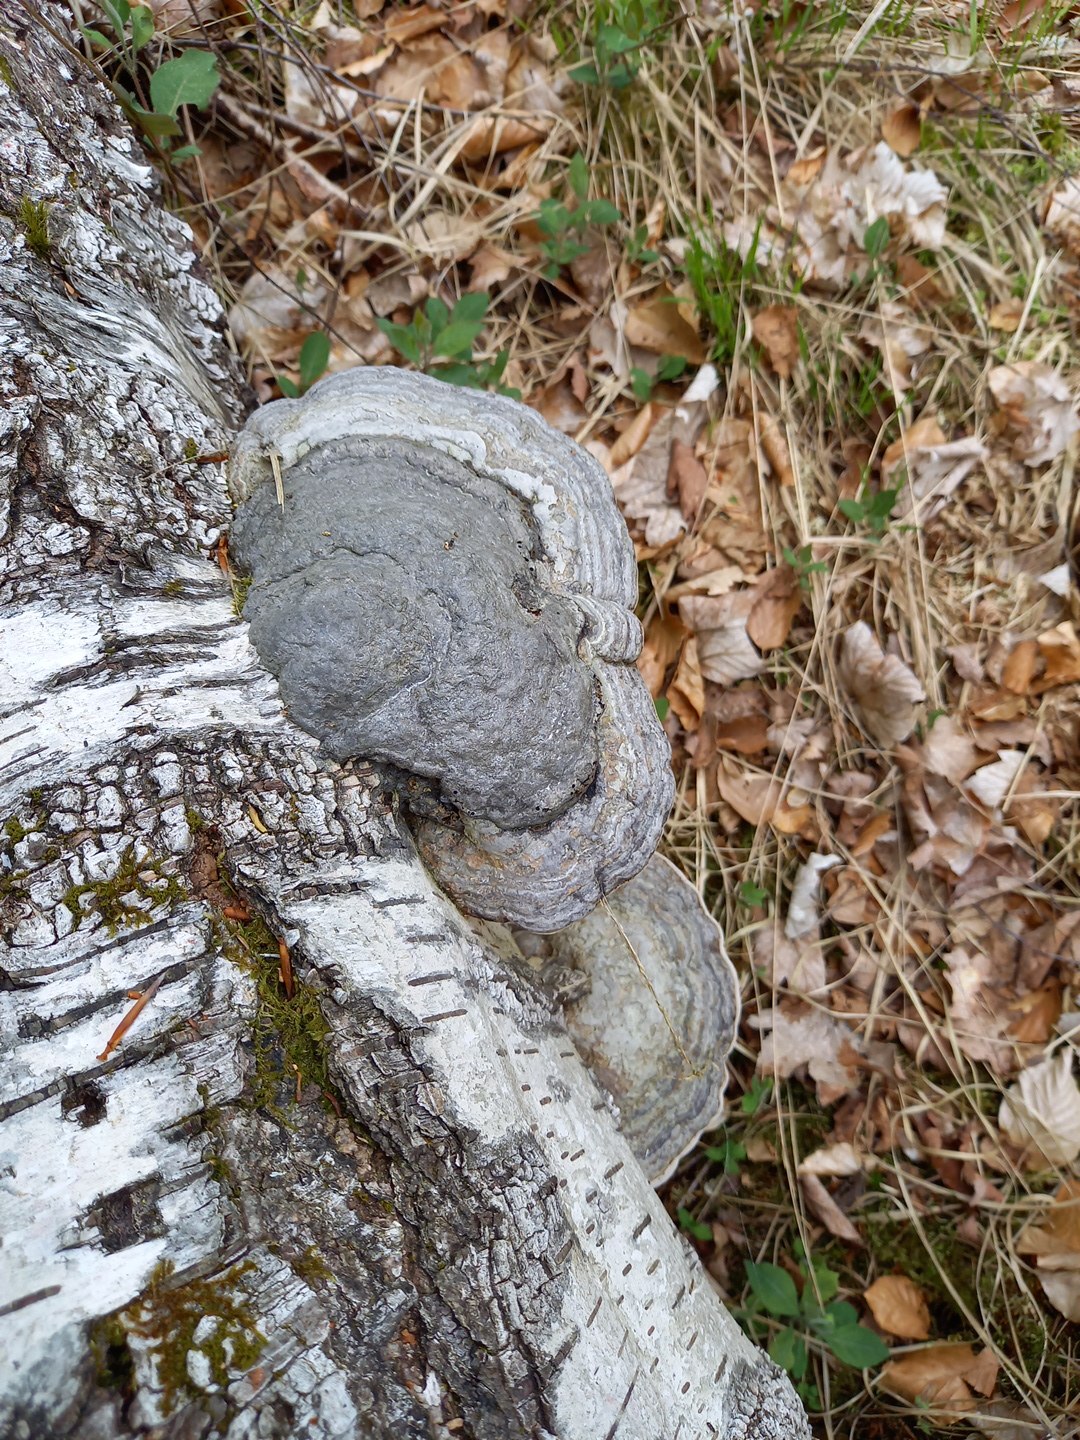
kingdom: Fungi
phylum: Basidiomycota
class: Agaricomycetes
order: Polyporales
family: Polyporaceae
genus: Fomes
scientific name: Fomes fomentarius
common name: tøndersvamp
